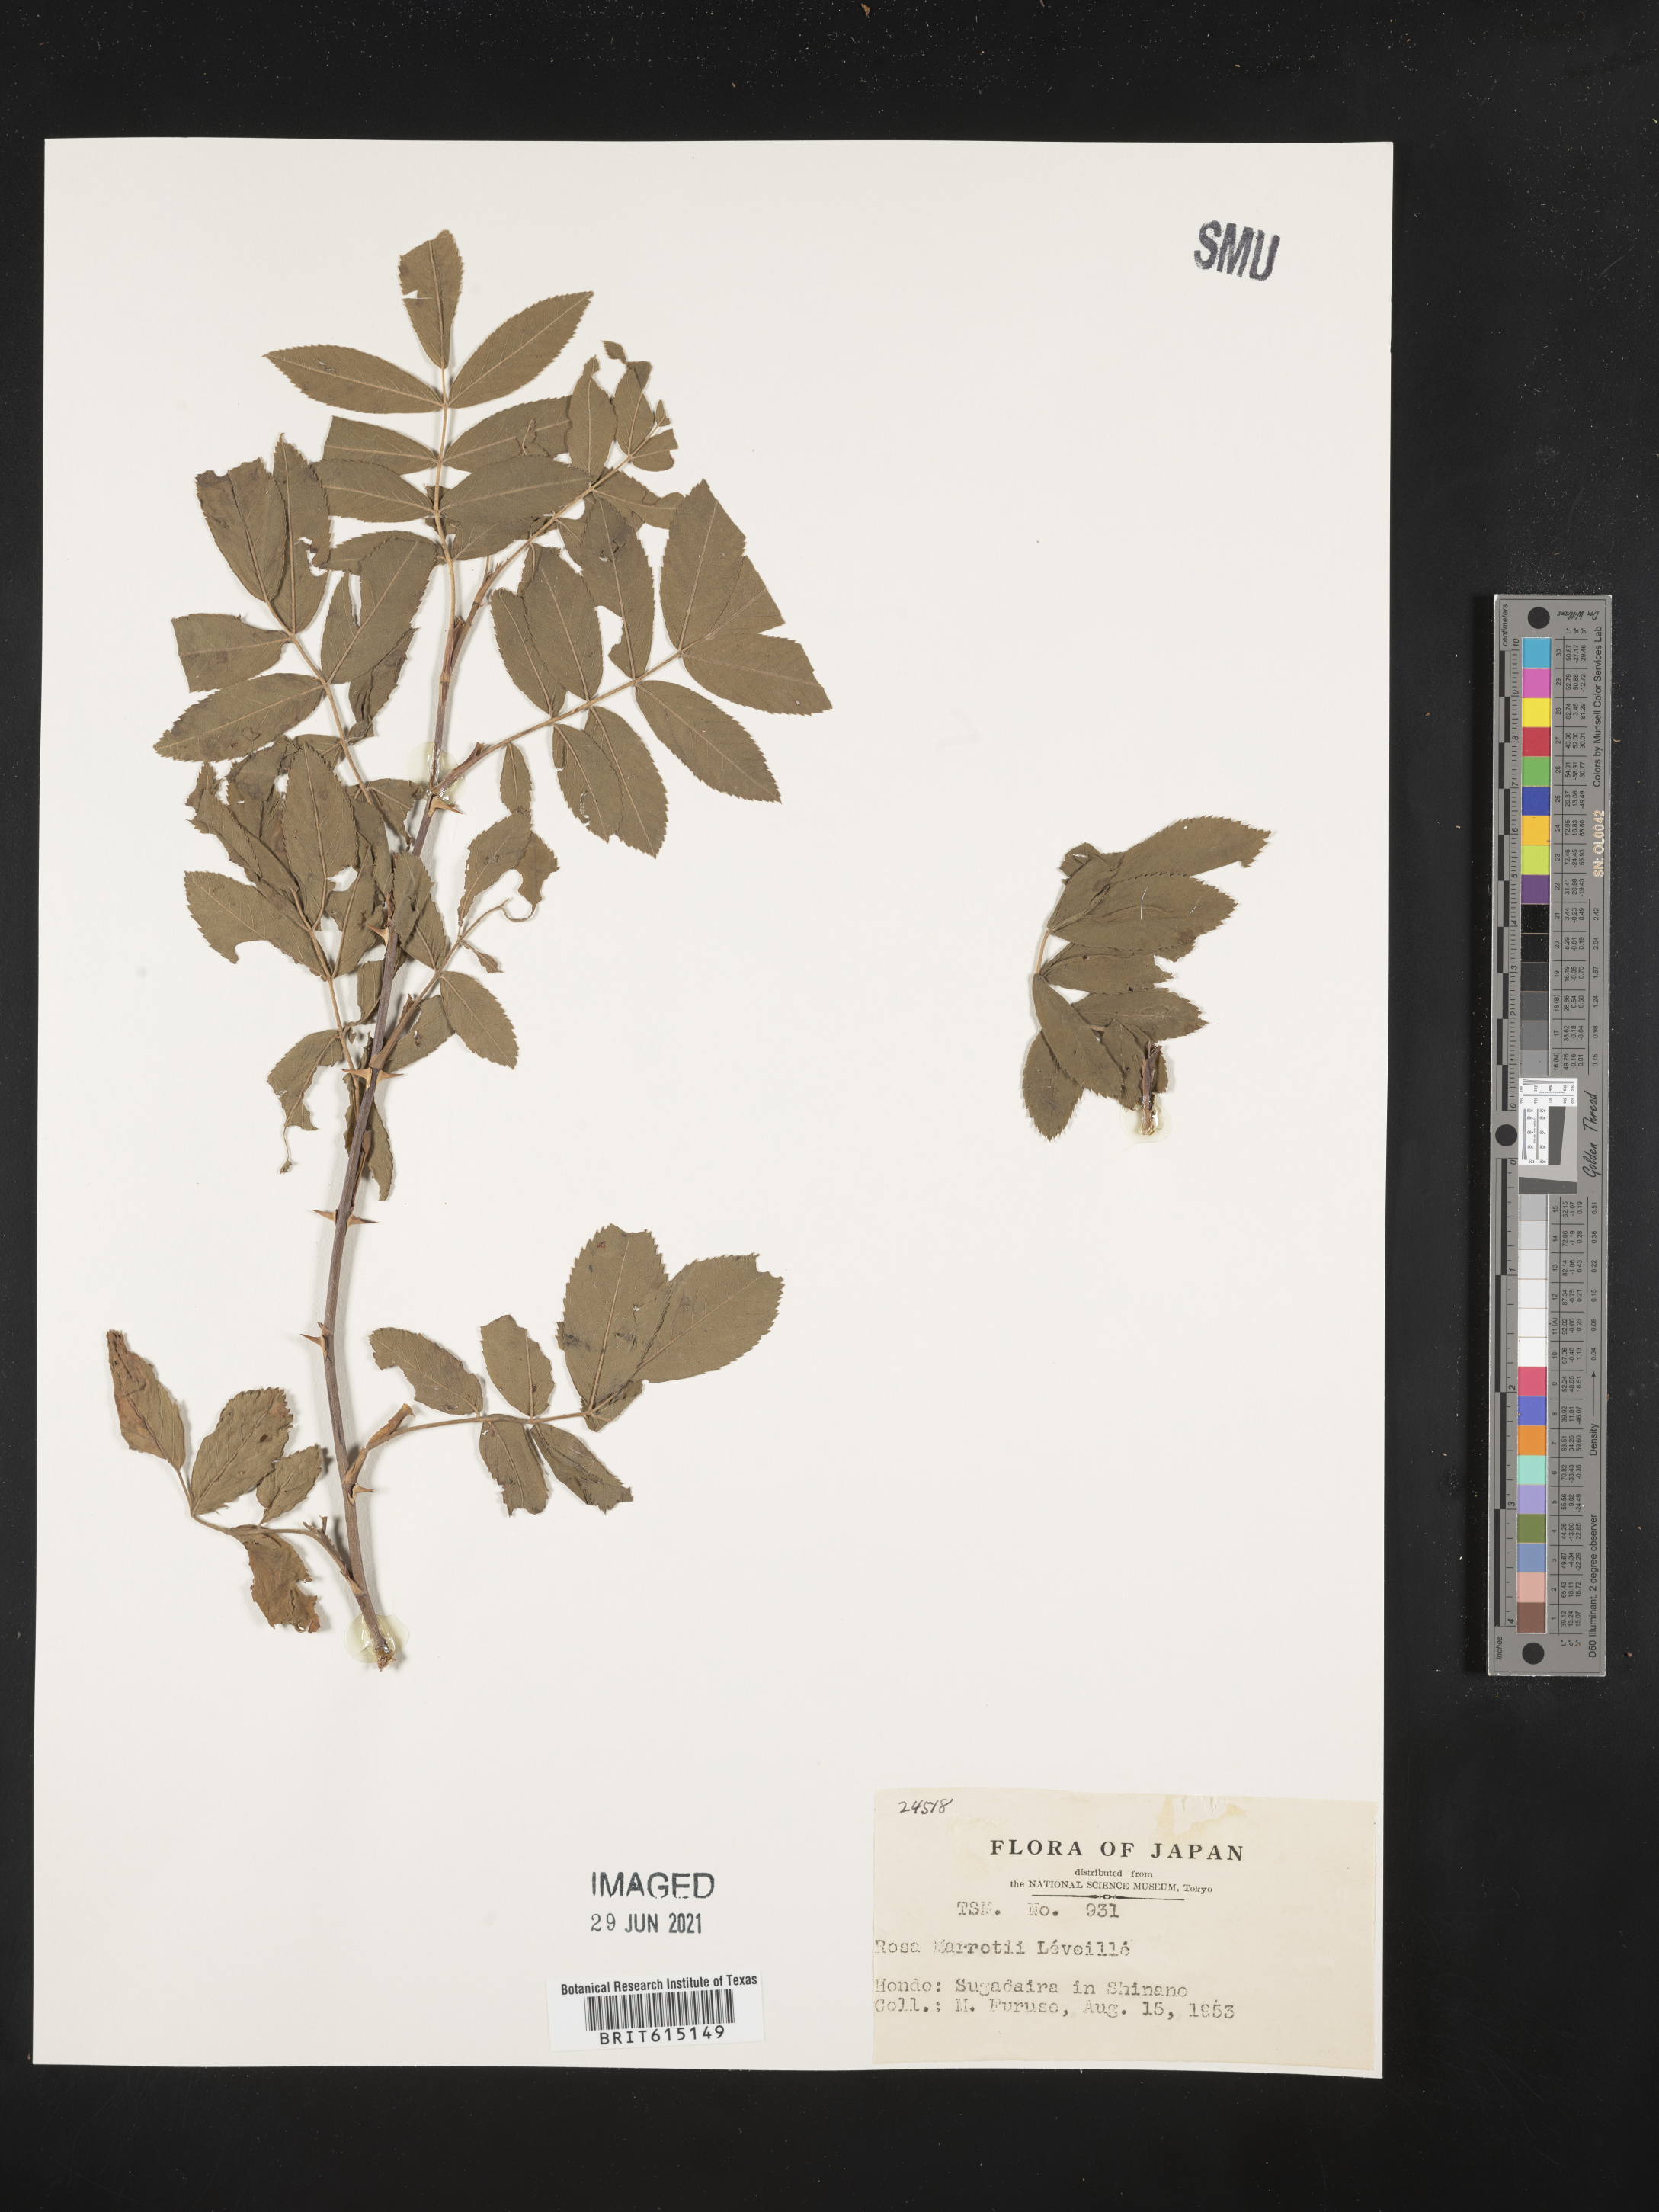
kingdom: Plantae
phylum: Tracheophyta
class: Magnoliopsida
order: Rosales
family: Rosaceae
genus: Rosa
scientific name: Rosa davurica
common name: Amur rose
